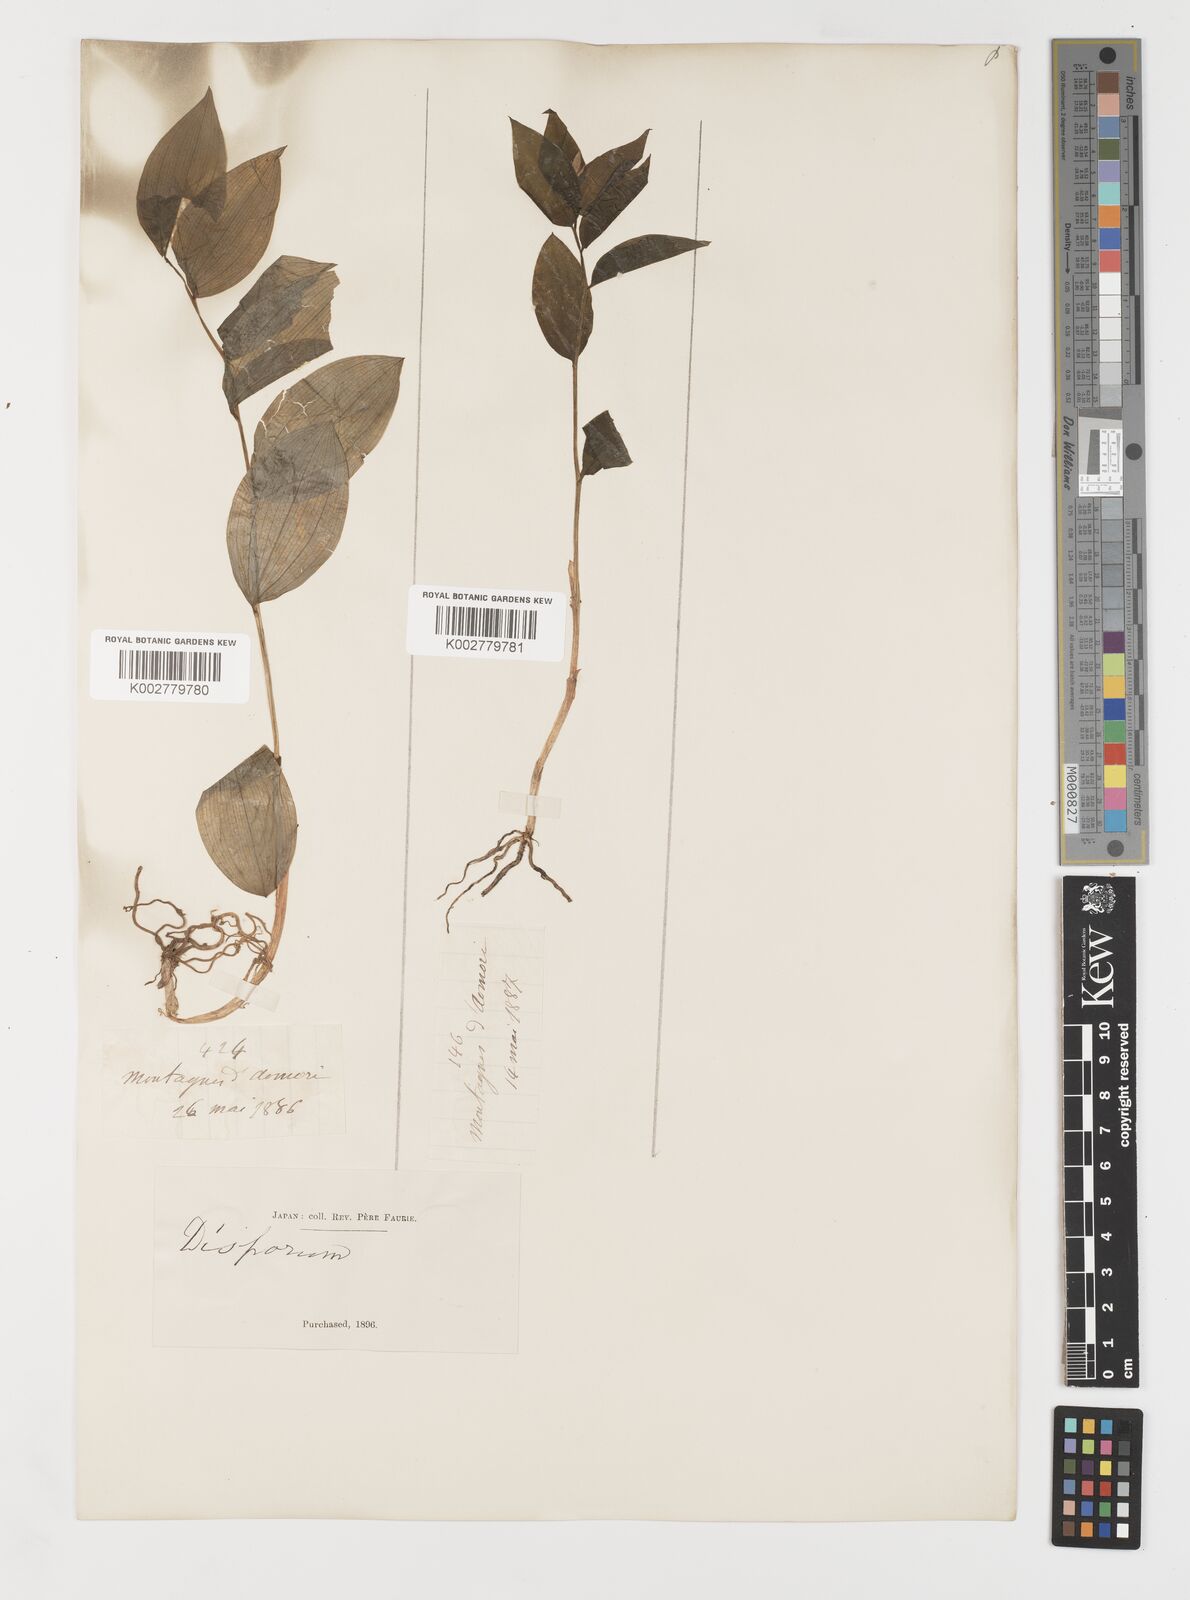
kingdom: Plantae
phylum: Tracheophyta
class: Liliopsida
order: Liliales
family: Colchicaceae
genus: Disporum
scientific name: Disporum smilacinum
